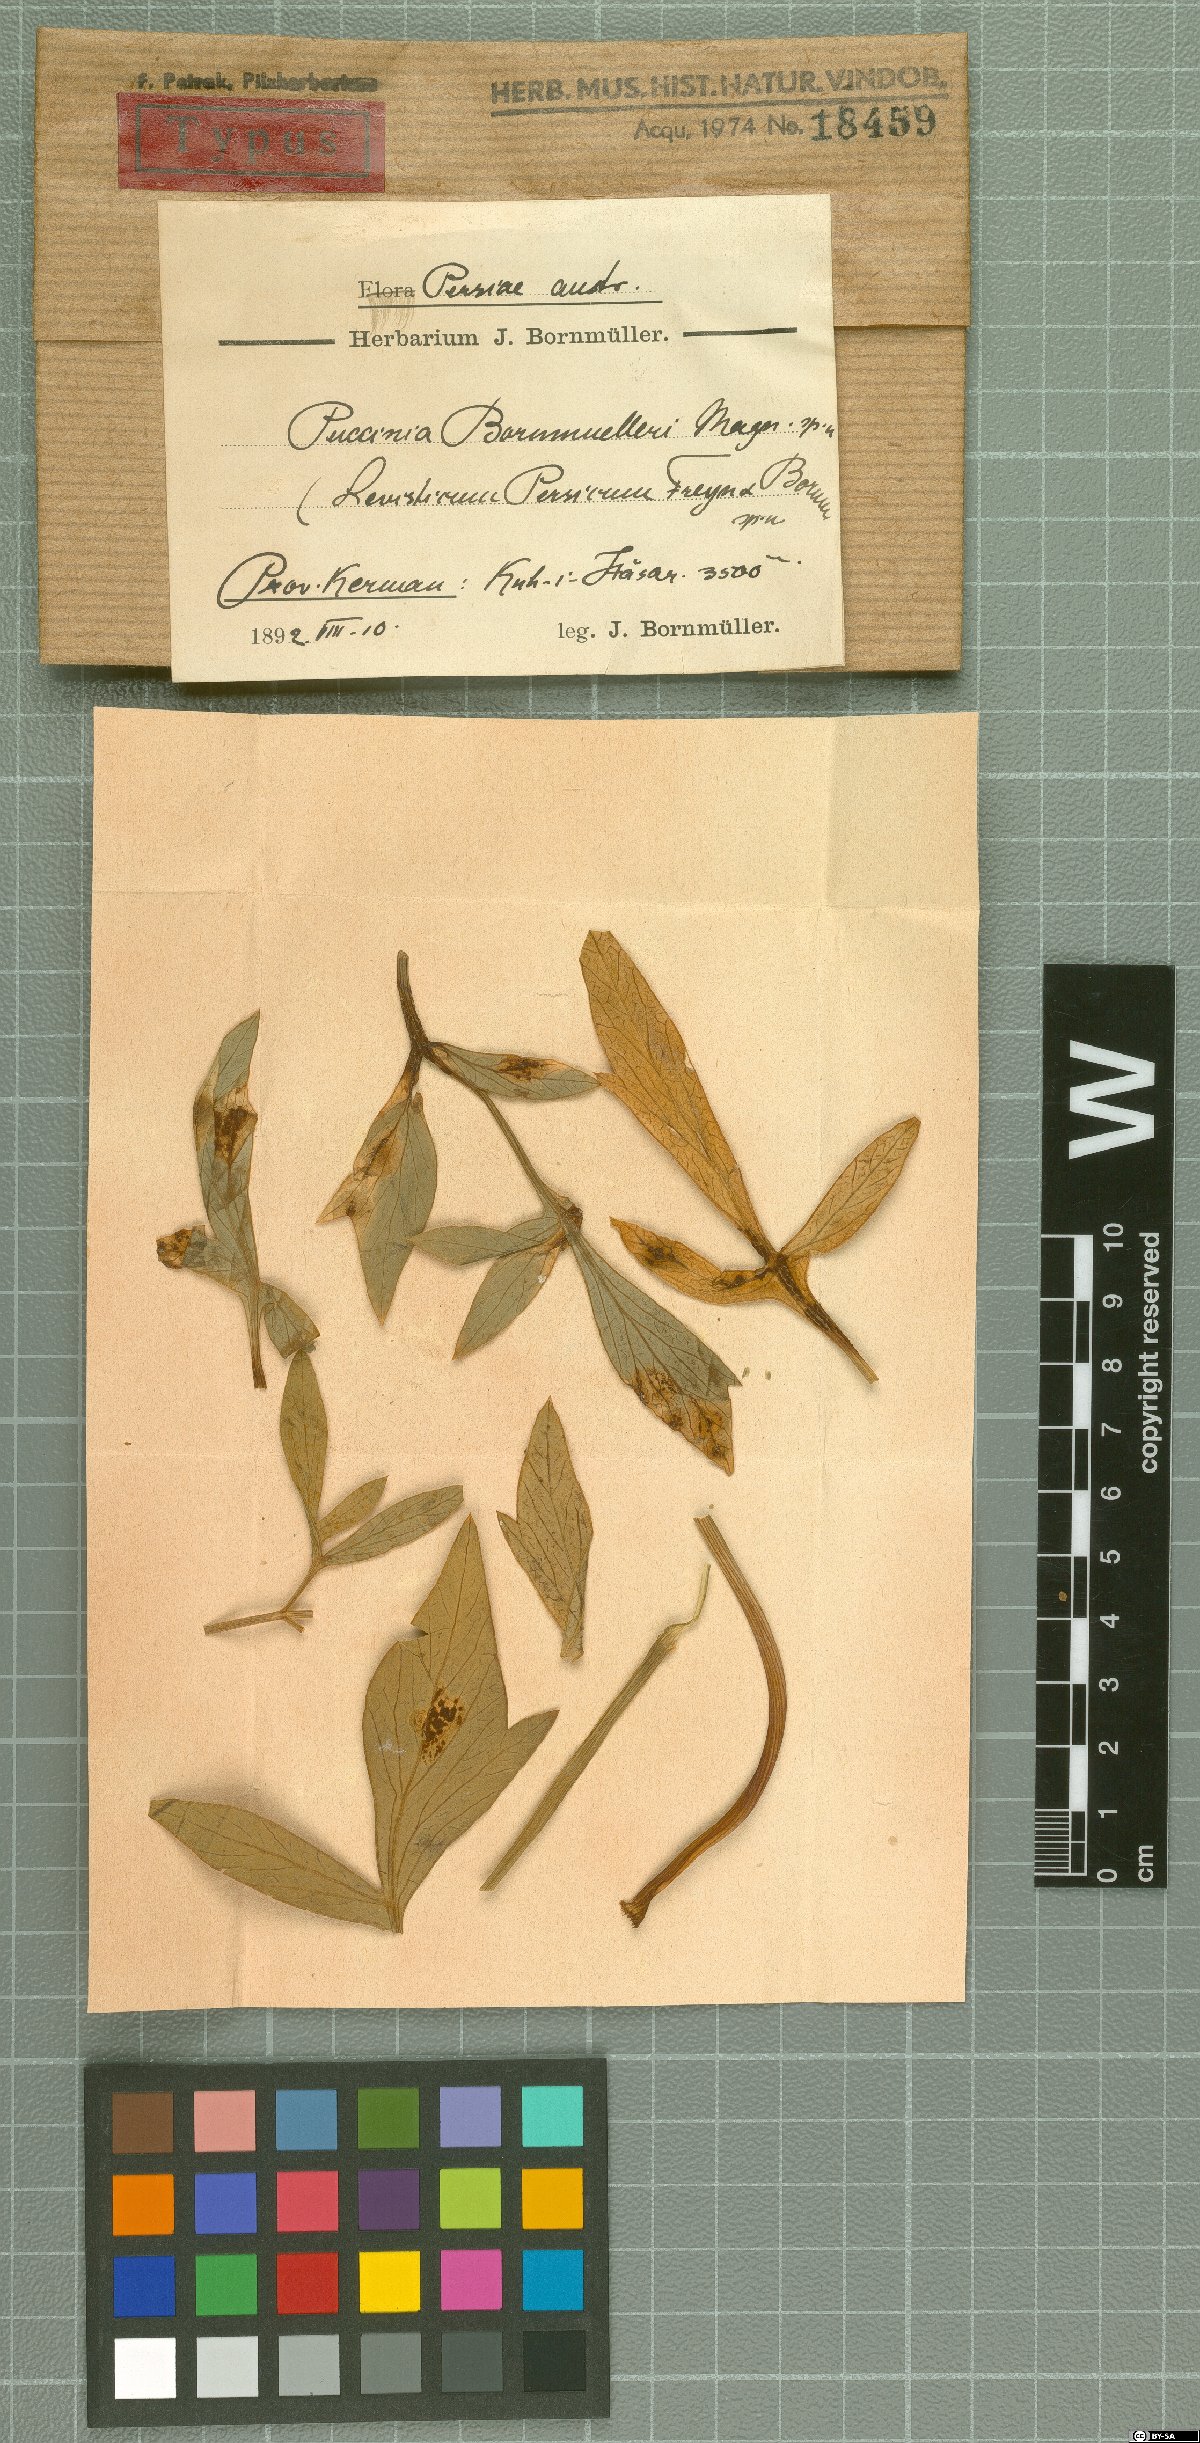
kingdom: Fungi
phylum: Basidiomycota
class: Pucciniomycetes
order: Pucciniales
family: Pucciniaceae
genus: Puccinia
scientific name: Puccinia bornmuelleri
